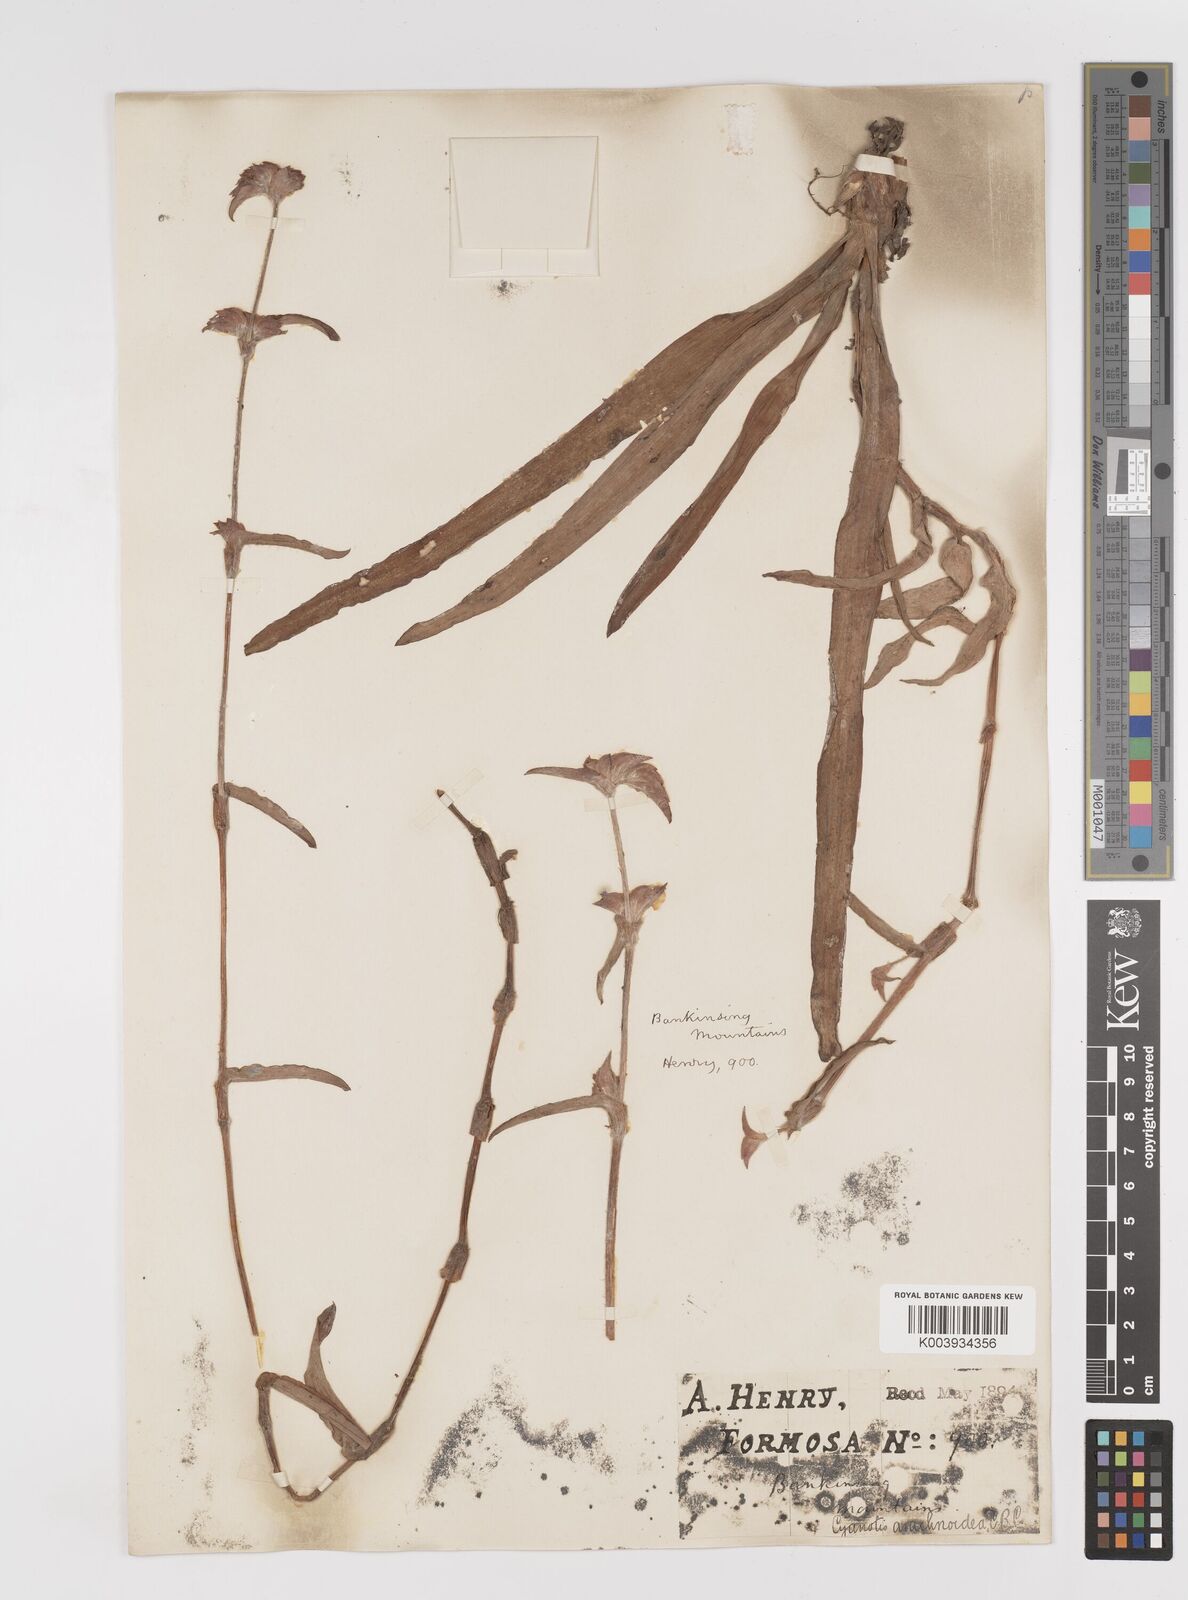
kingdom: Plantae
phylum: Tracheophyta
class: Liliopsida
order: Commelinales
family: Commelinaceae
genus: Cyanotis
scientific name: Cyanotis arachnoidea
